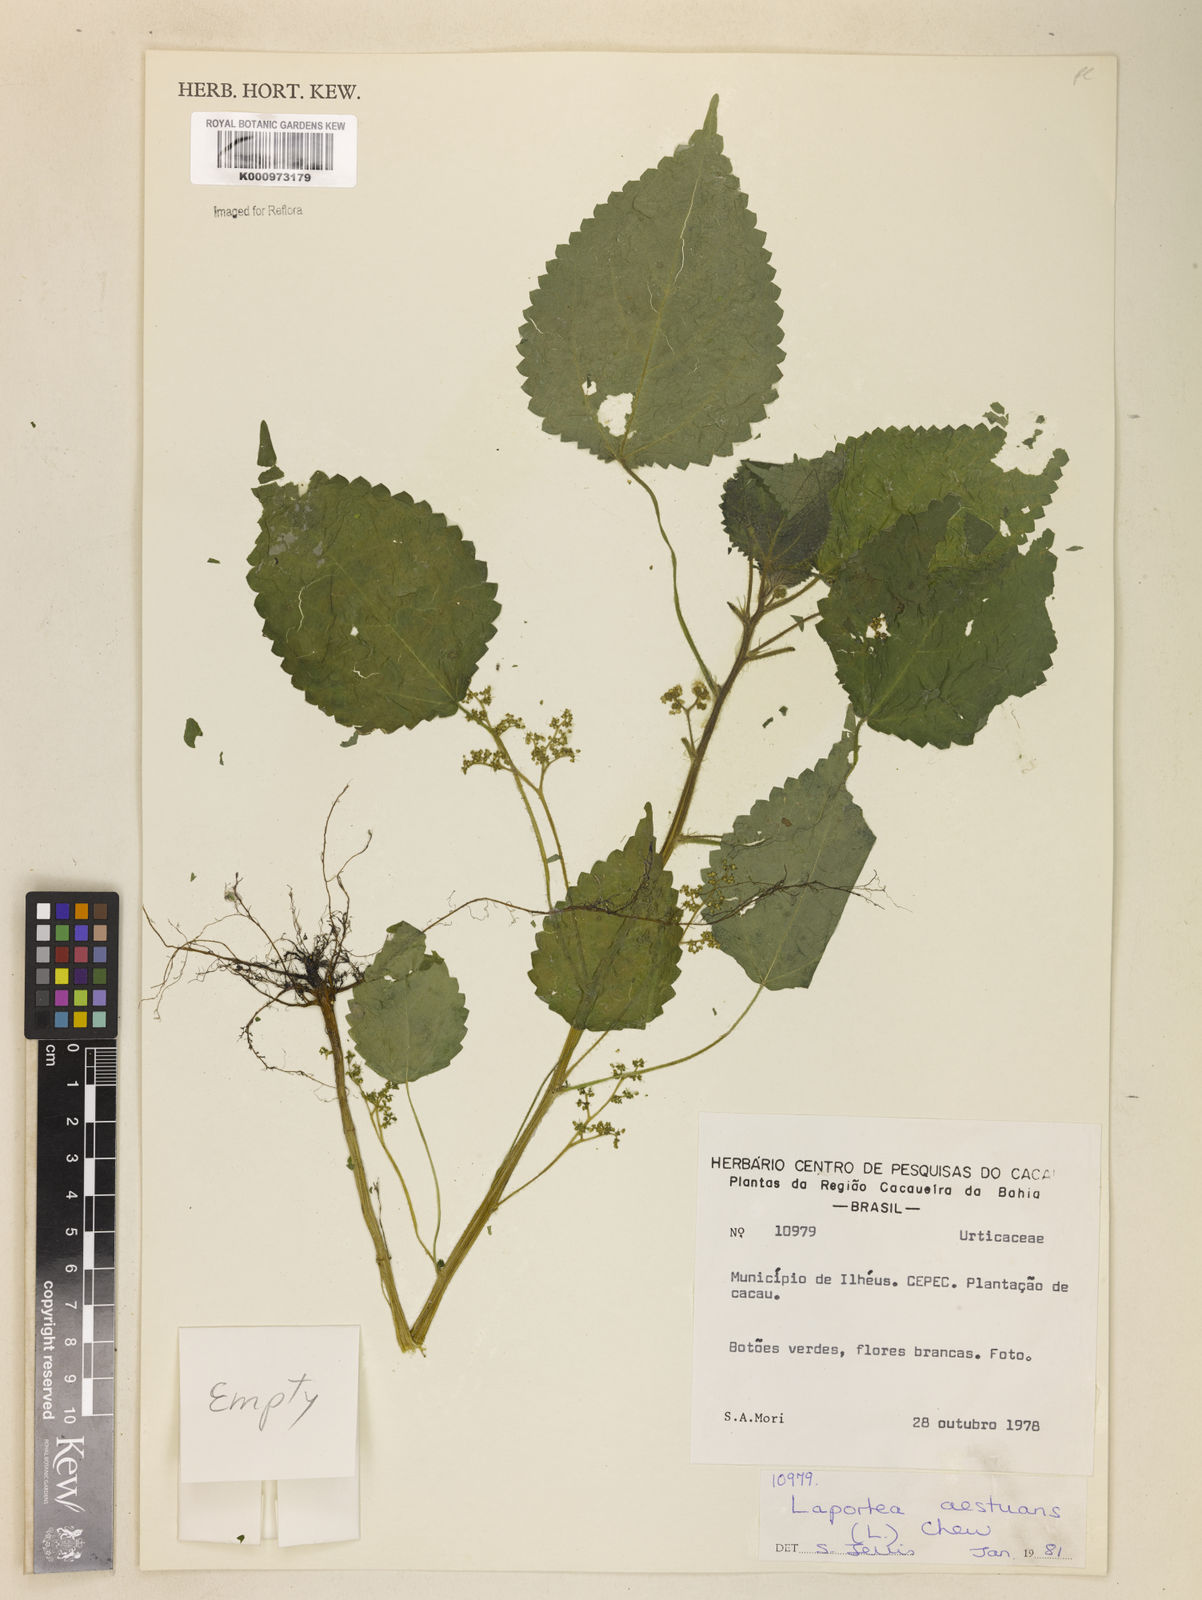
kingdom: Plantae
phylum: Tracheophyta
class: Magnoliopsida
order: Rosales
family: Urticaceae
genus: Laportea
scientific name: Laportea aestuans
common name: West indian woodnettle
